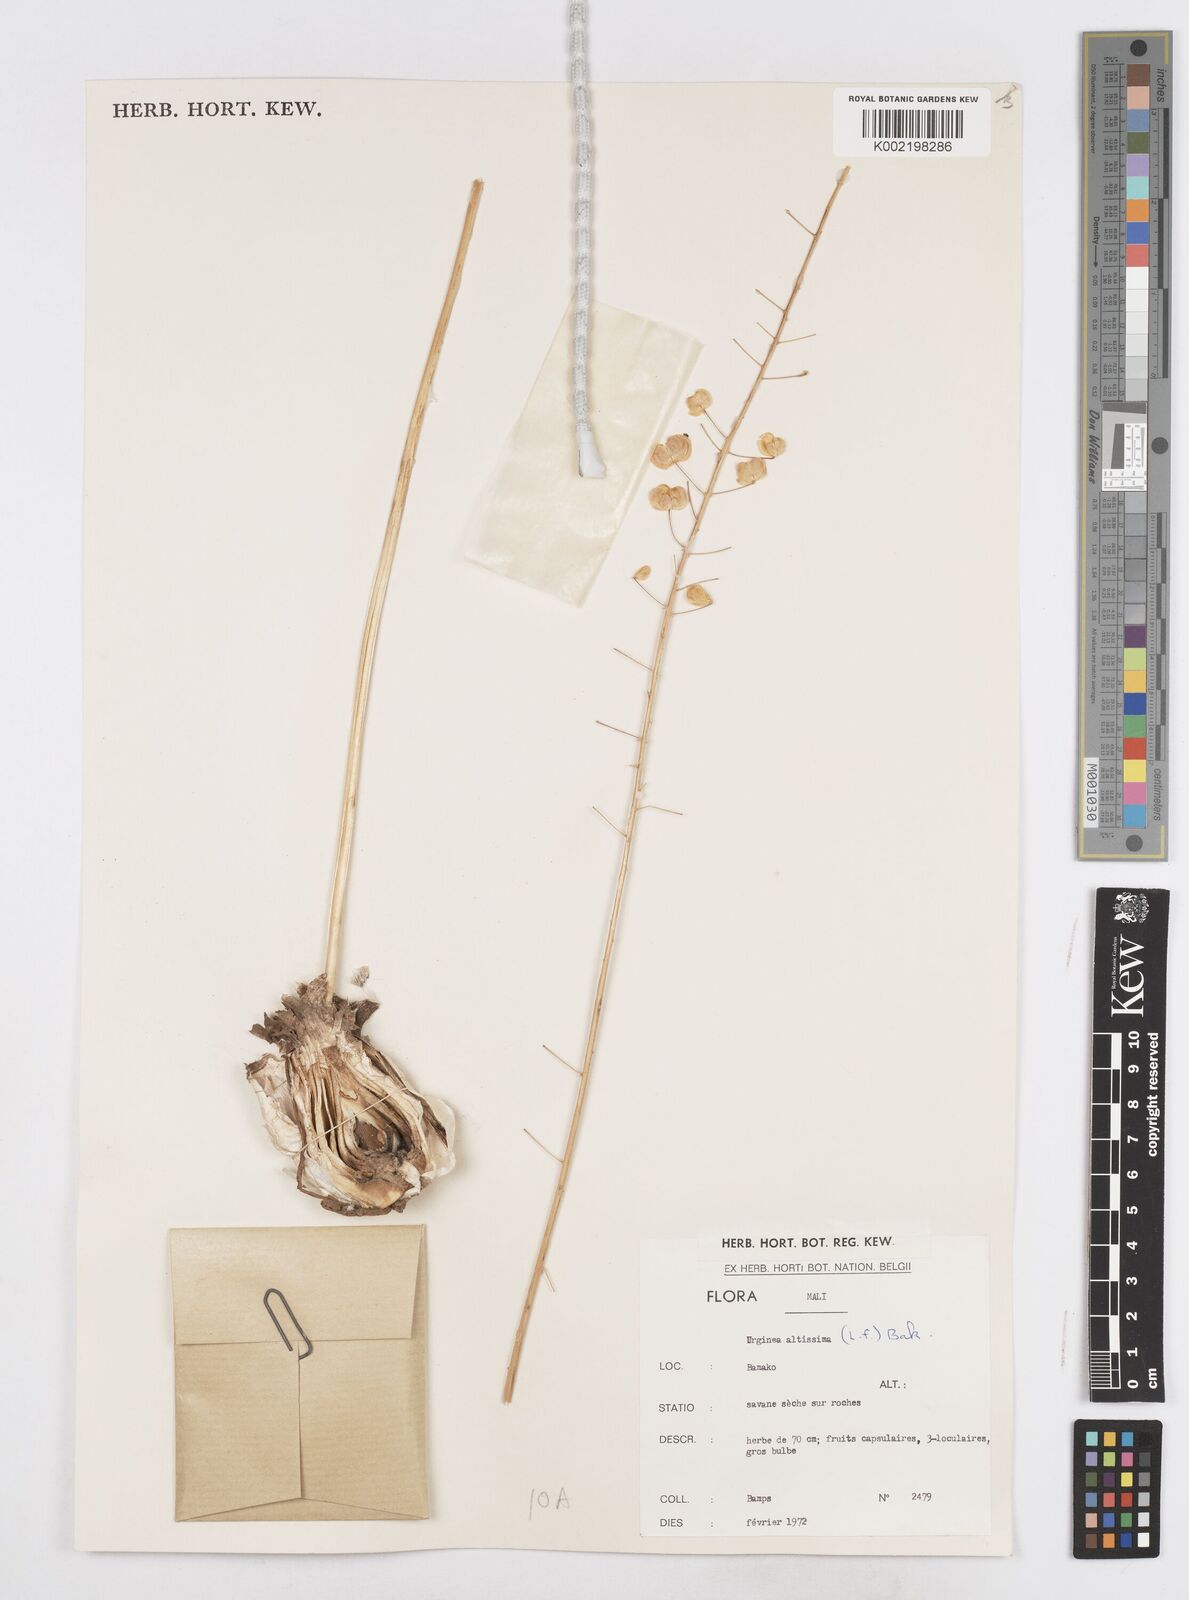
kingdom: Plantae
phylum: Tracheophyta
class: Liliopsida
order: Asparagales
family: Asparagaceae
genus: Drimia
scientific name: Drimia altissima
